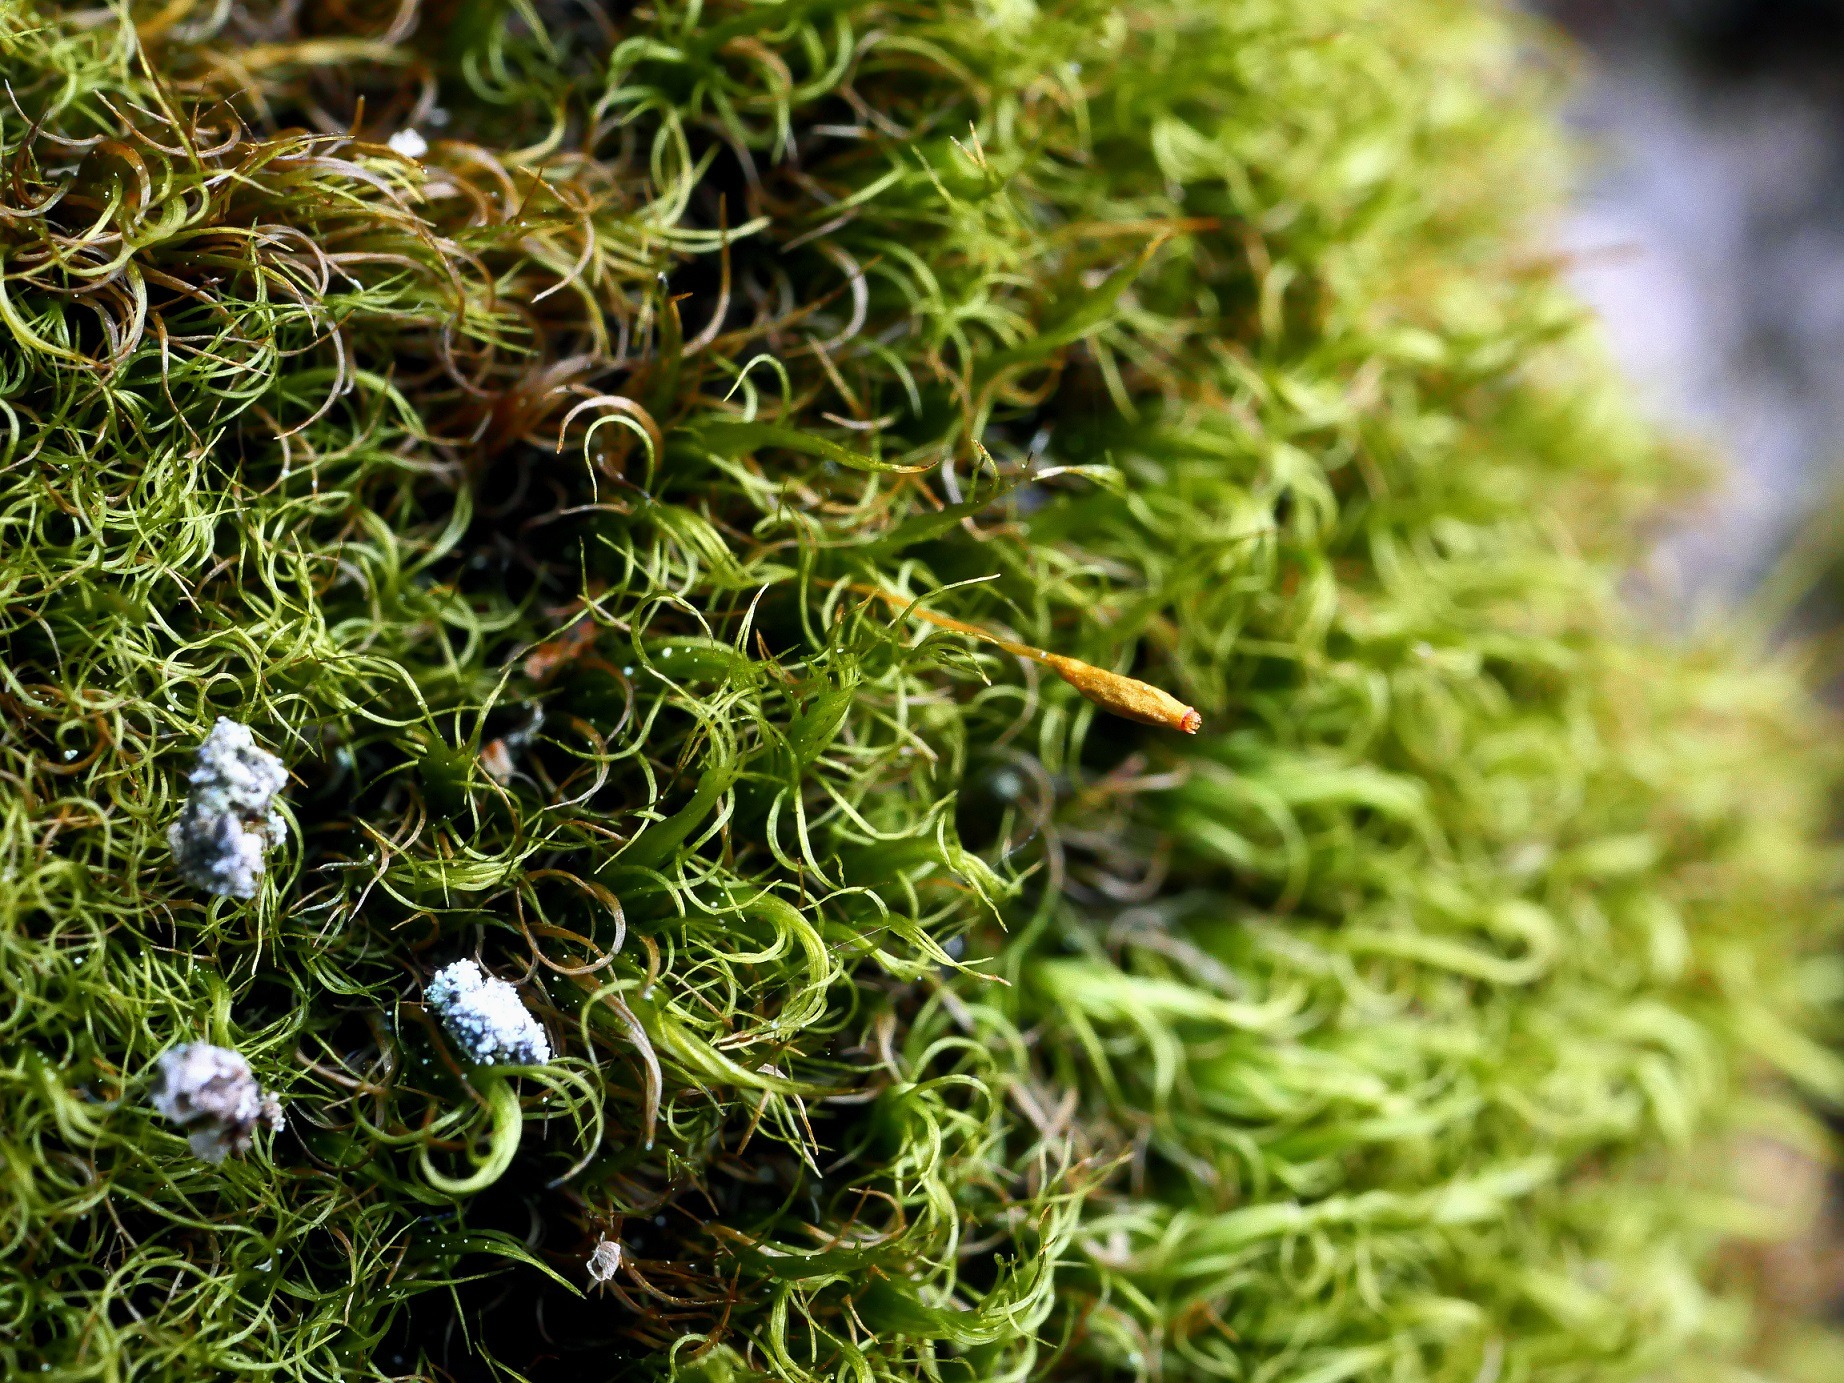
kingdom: Plantae
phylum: Bryophyta
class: Bryopsida
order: Dicranales
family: Dicranaceae
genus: Dicranum
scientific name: Dicranum scottianum
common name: Bornholmsk tyndvinge
